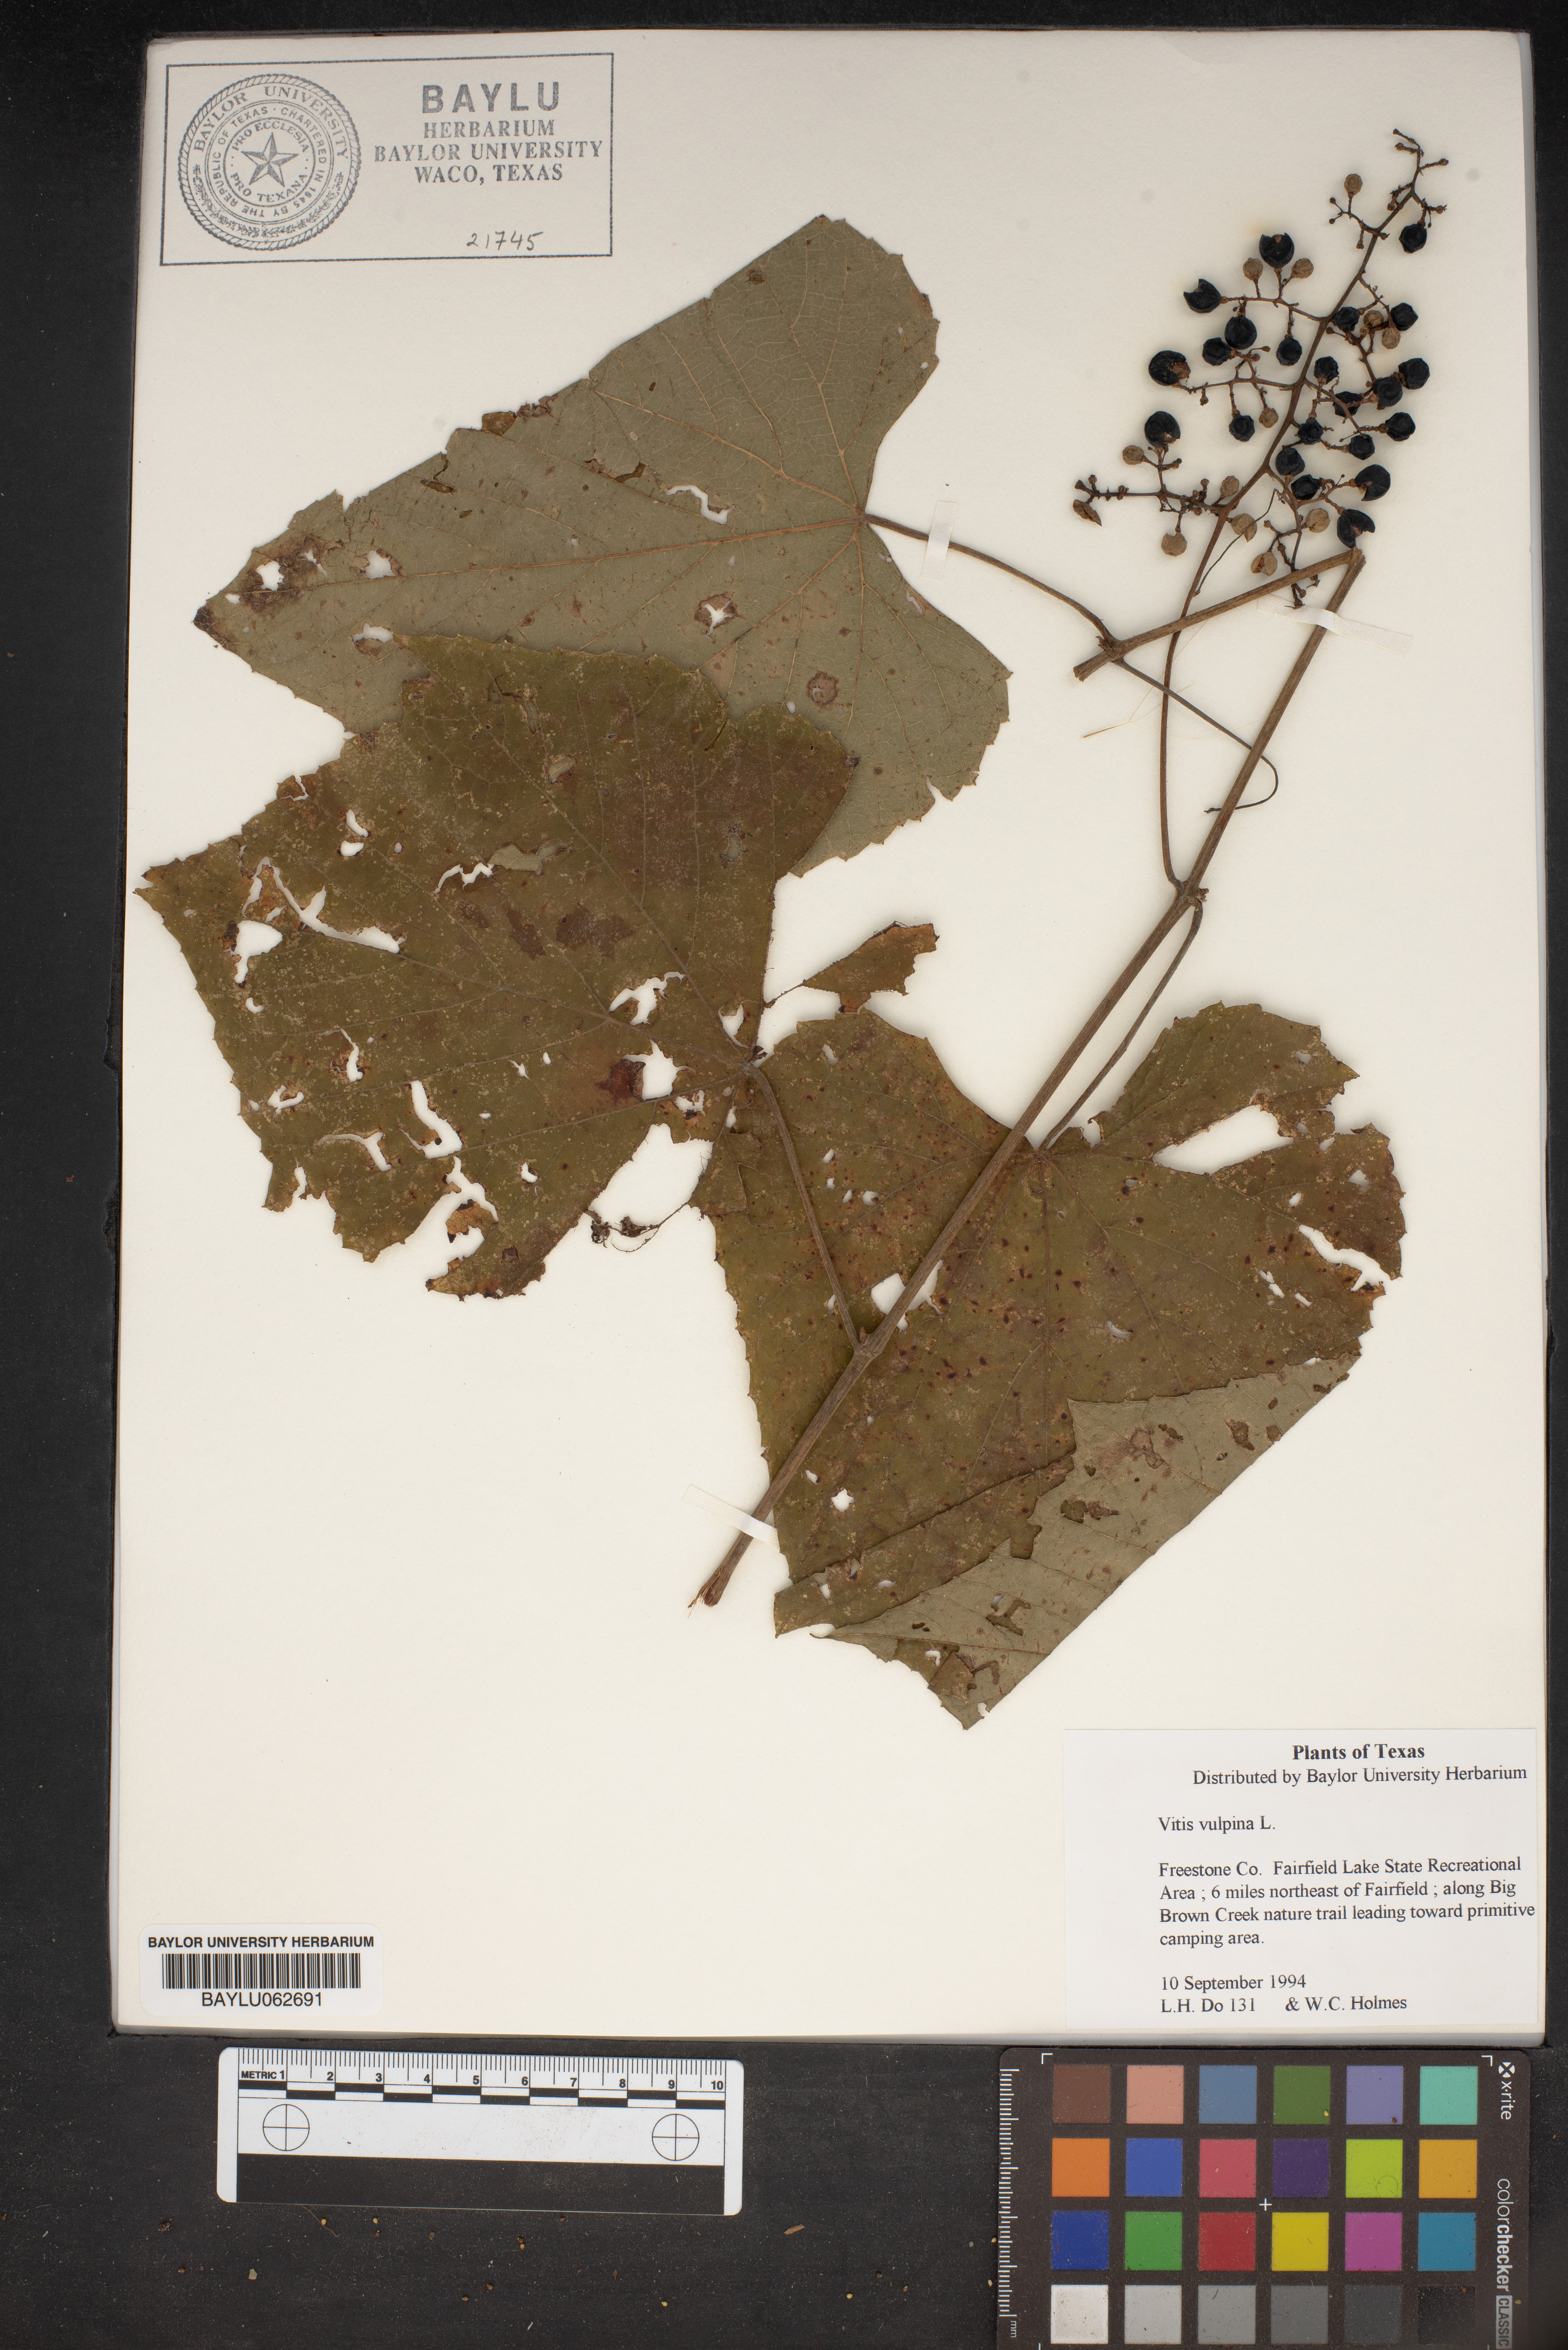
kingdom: Plantae
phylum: Tracheophyta
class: Magnoliopsida
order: Vitales
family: Vitaceae
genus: Vitis
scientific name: Vitis vulpina
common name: Frost grape
